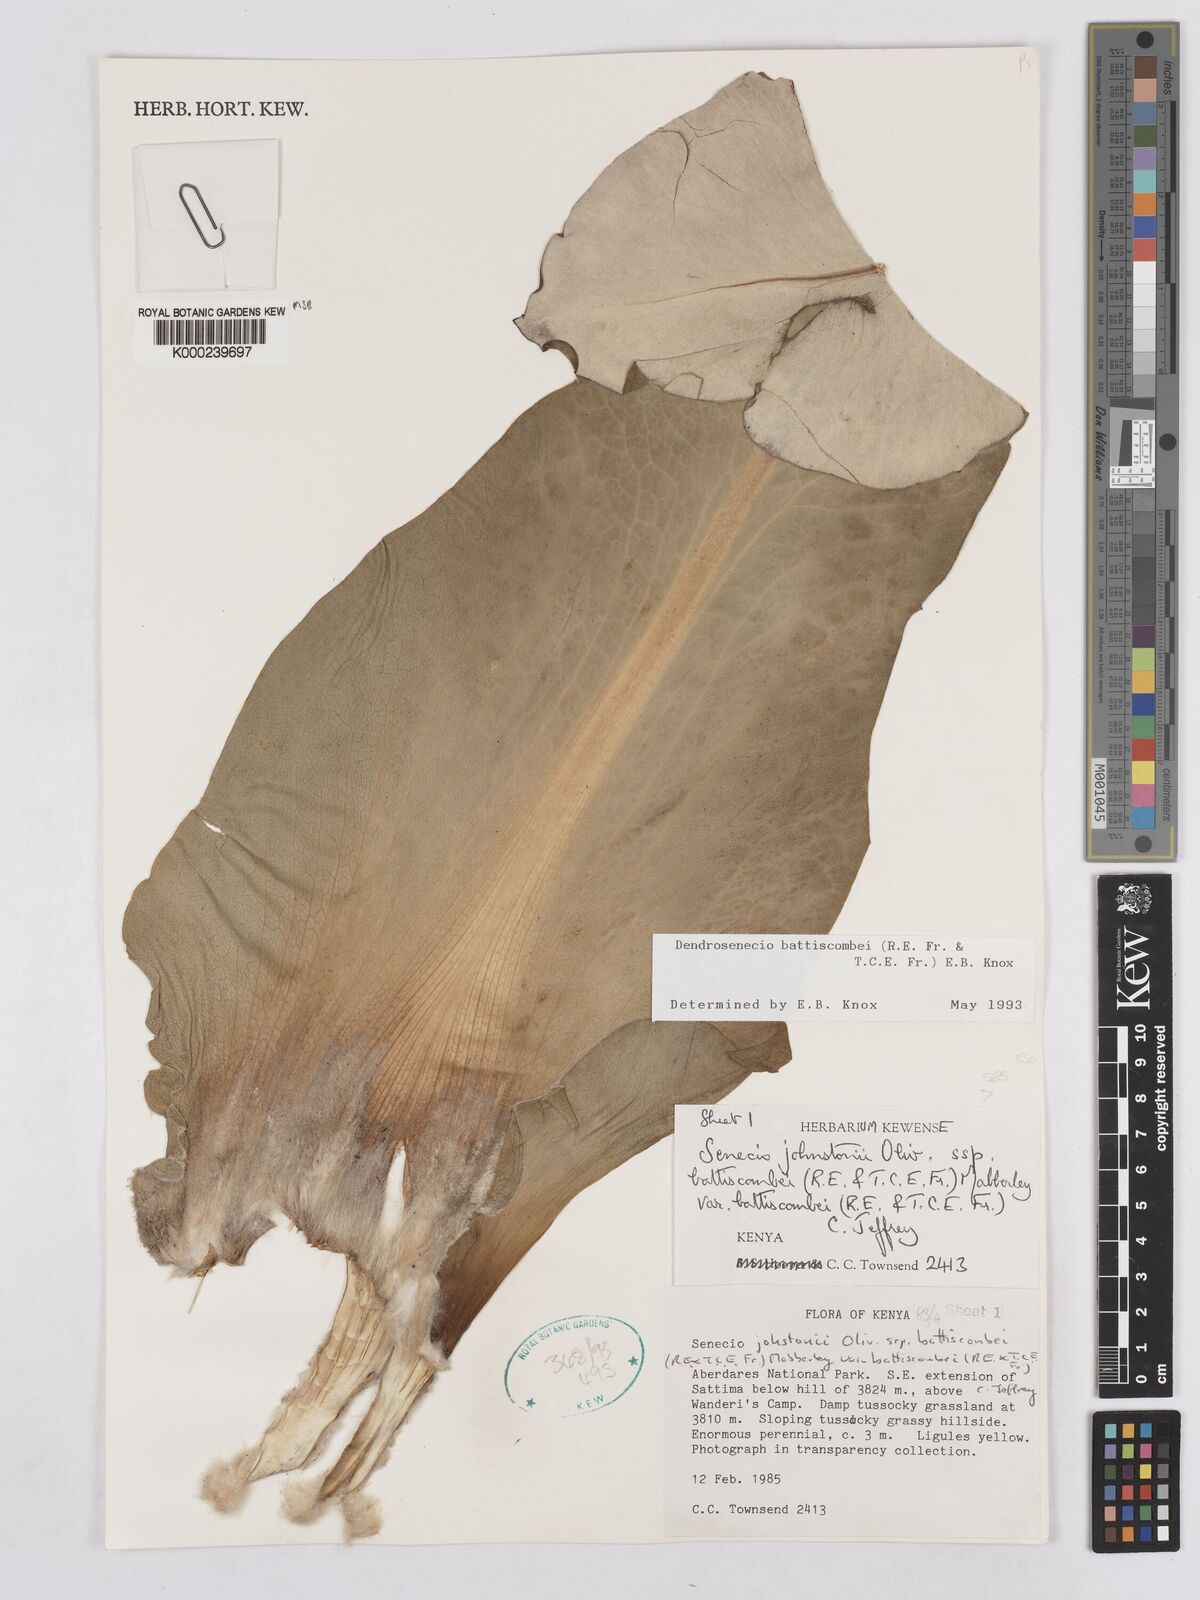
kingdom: Plantae
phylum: Tracheophyta
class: Magnoliopsida
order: Asterales
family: Asteraceae
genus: Dendrosenecio
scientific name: Dendrosenecio battiscombei
